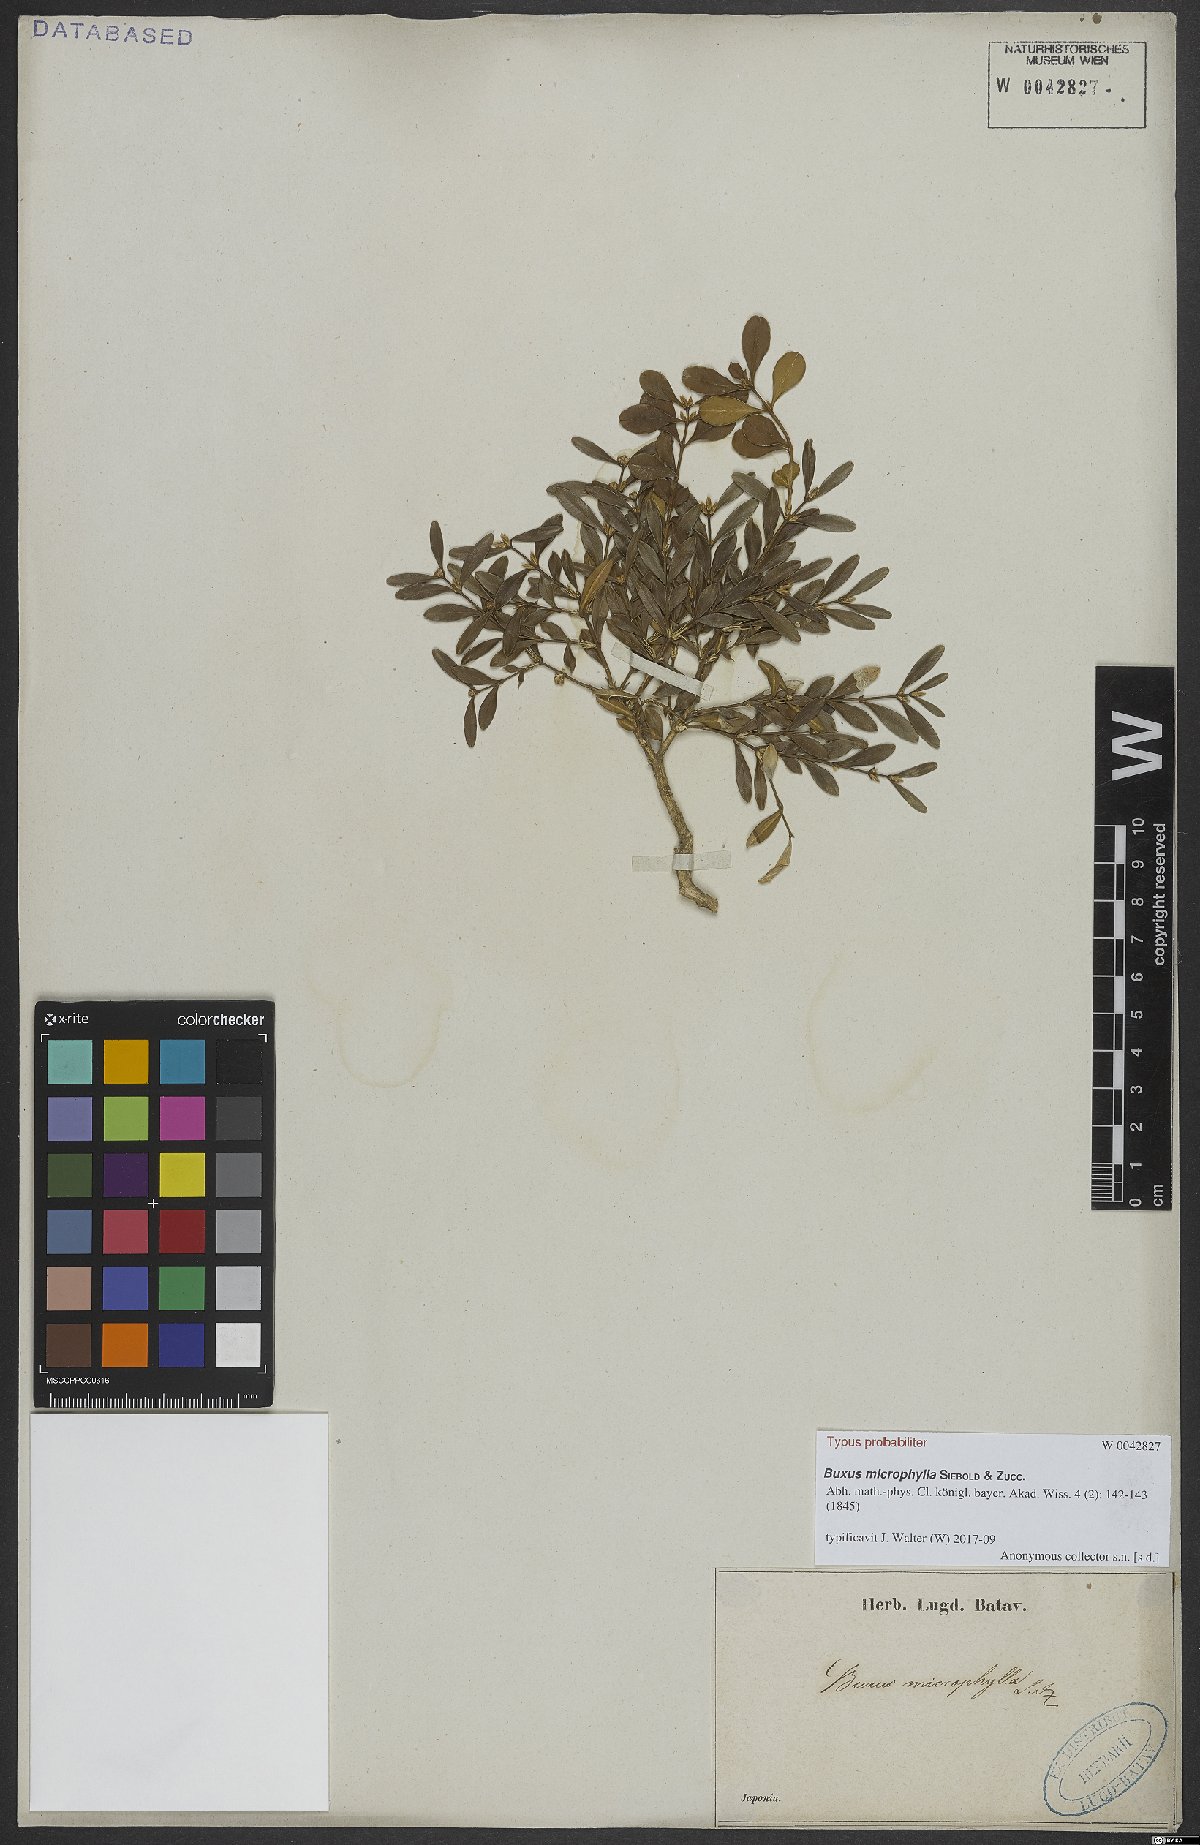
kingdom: Plantae
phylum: Tracheophyta
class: Magnoliopsida
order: Buxales
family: Buxaceae
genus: Buxus
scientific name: Buxus microphylla
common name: Littleleaf boxwood
